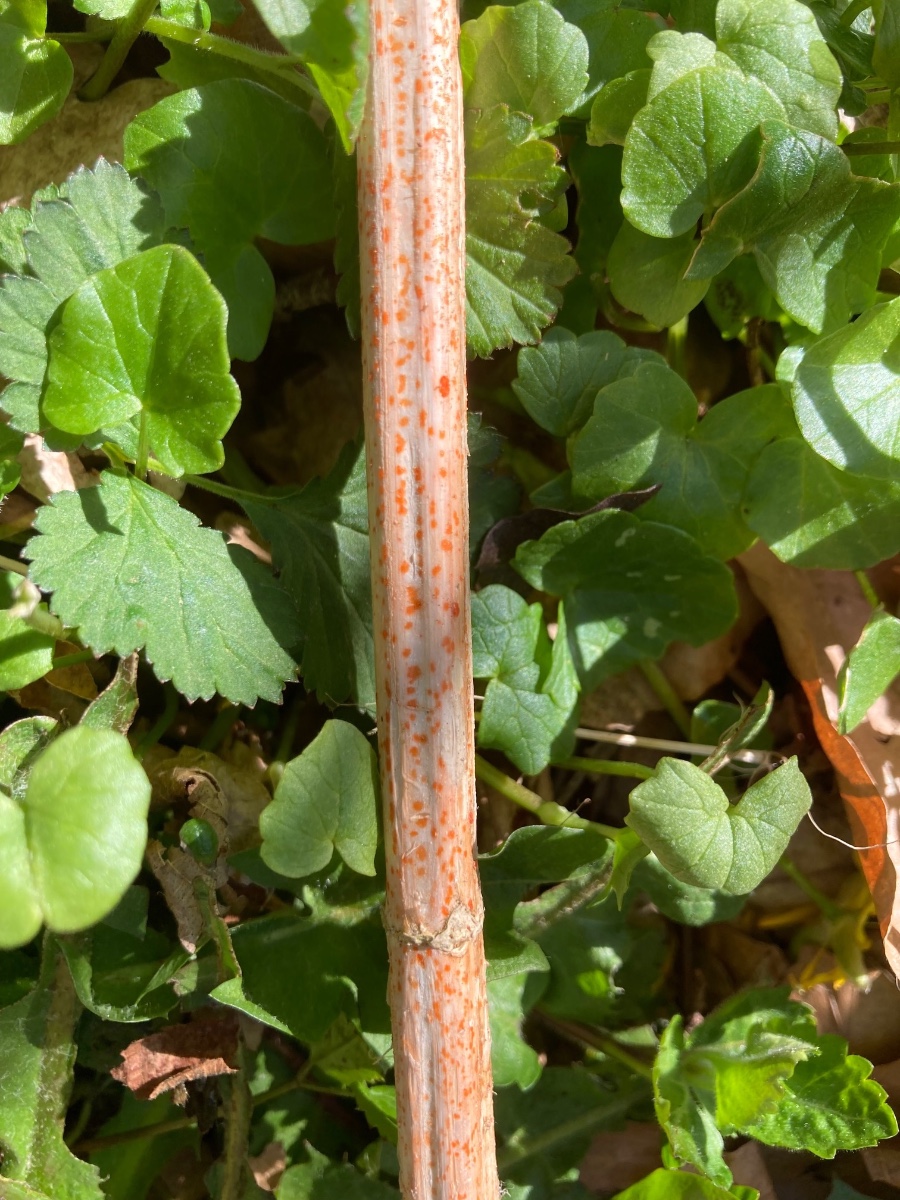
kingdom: Fungi
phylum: Ascomycota
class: Leotiomycetes
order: Helotiales
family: Calloriaceae
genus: Calloria
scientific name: Calloria urticae
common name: nælde-orangeskive
